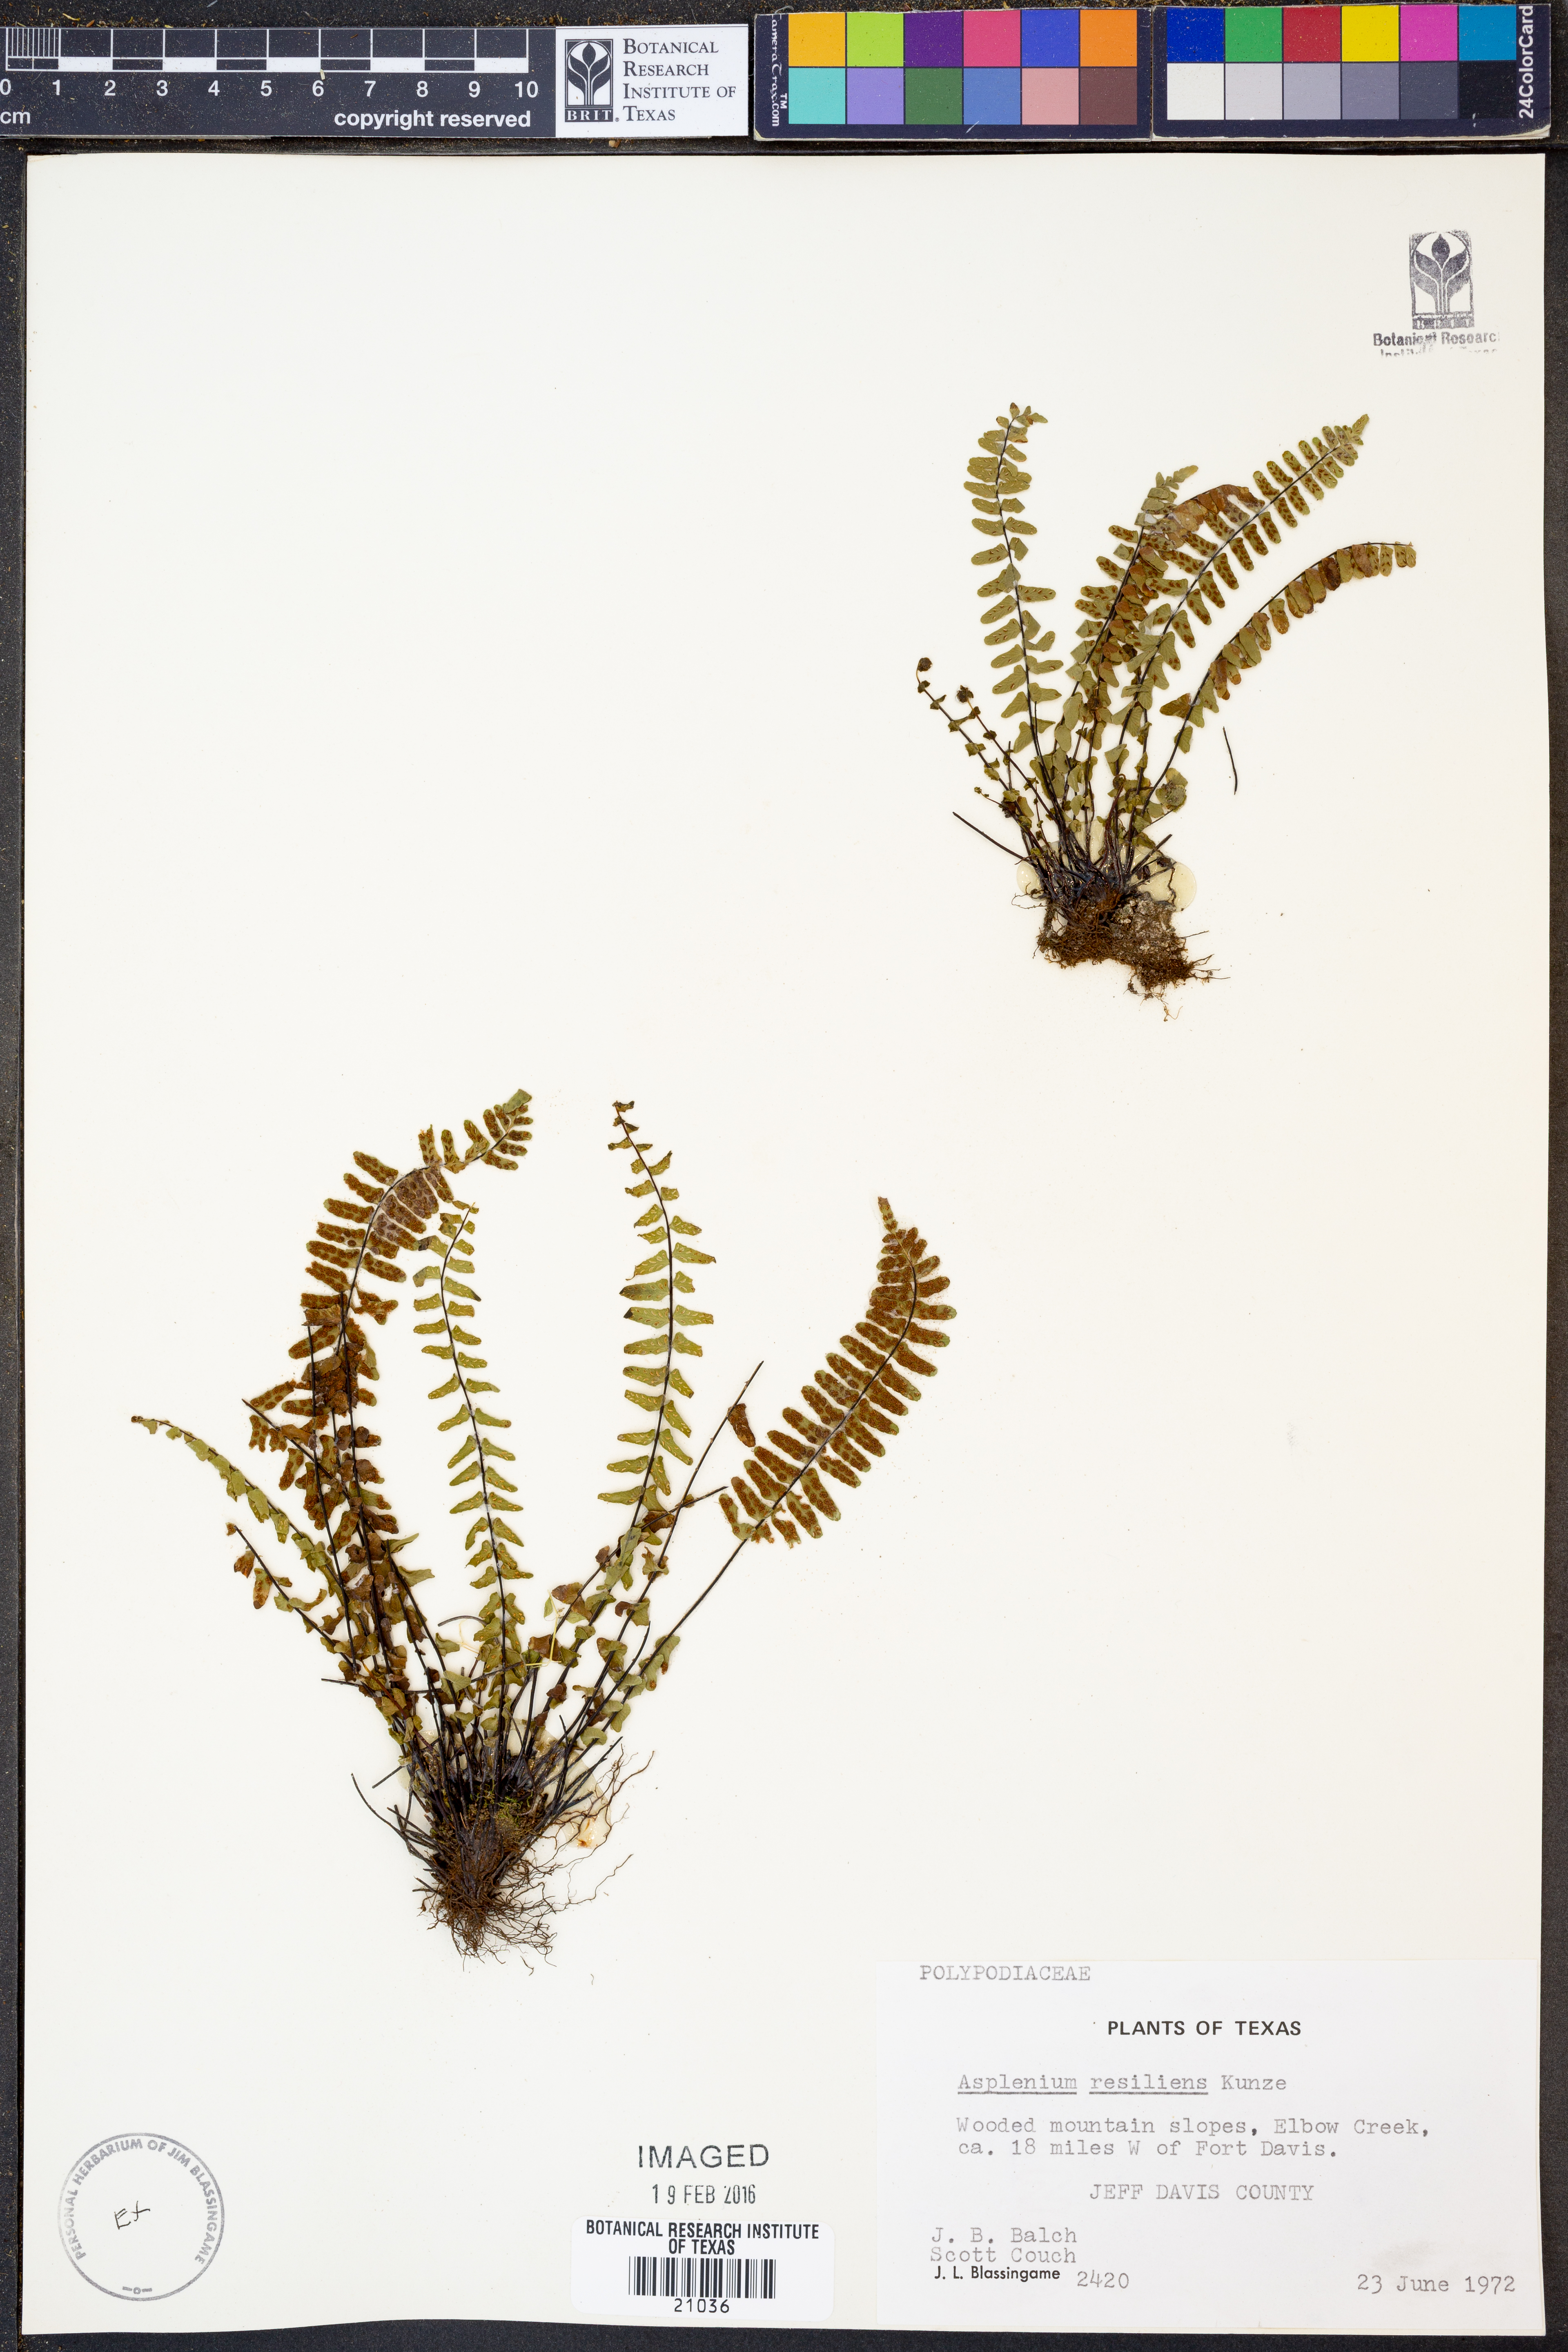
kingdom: Plantae
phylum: Tracheophyta
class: Polypodiopsida
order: Polypodiales
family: Aspleniaceae
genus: Asplenium
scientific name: Asplenium resiliens
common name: Blackstem spleenwort
